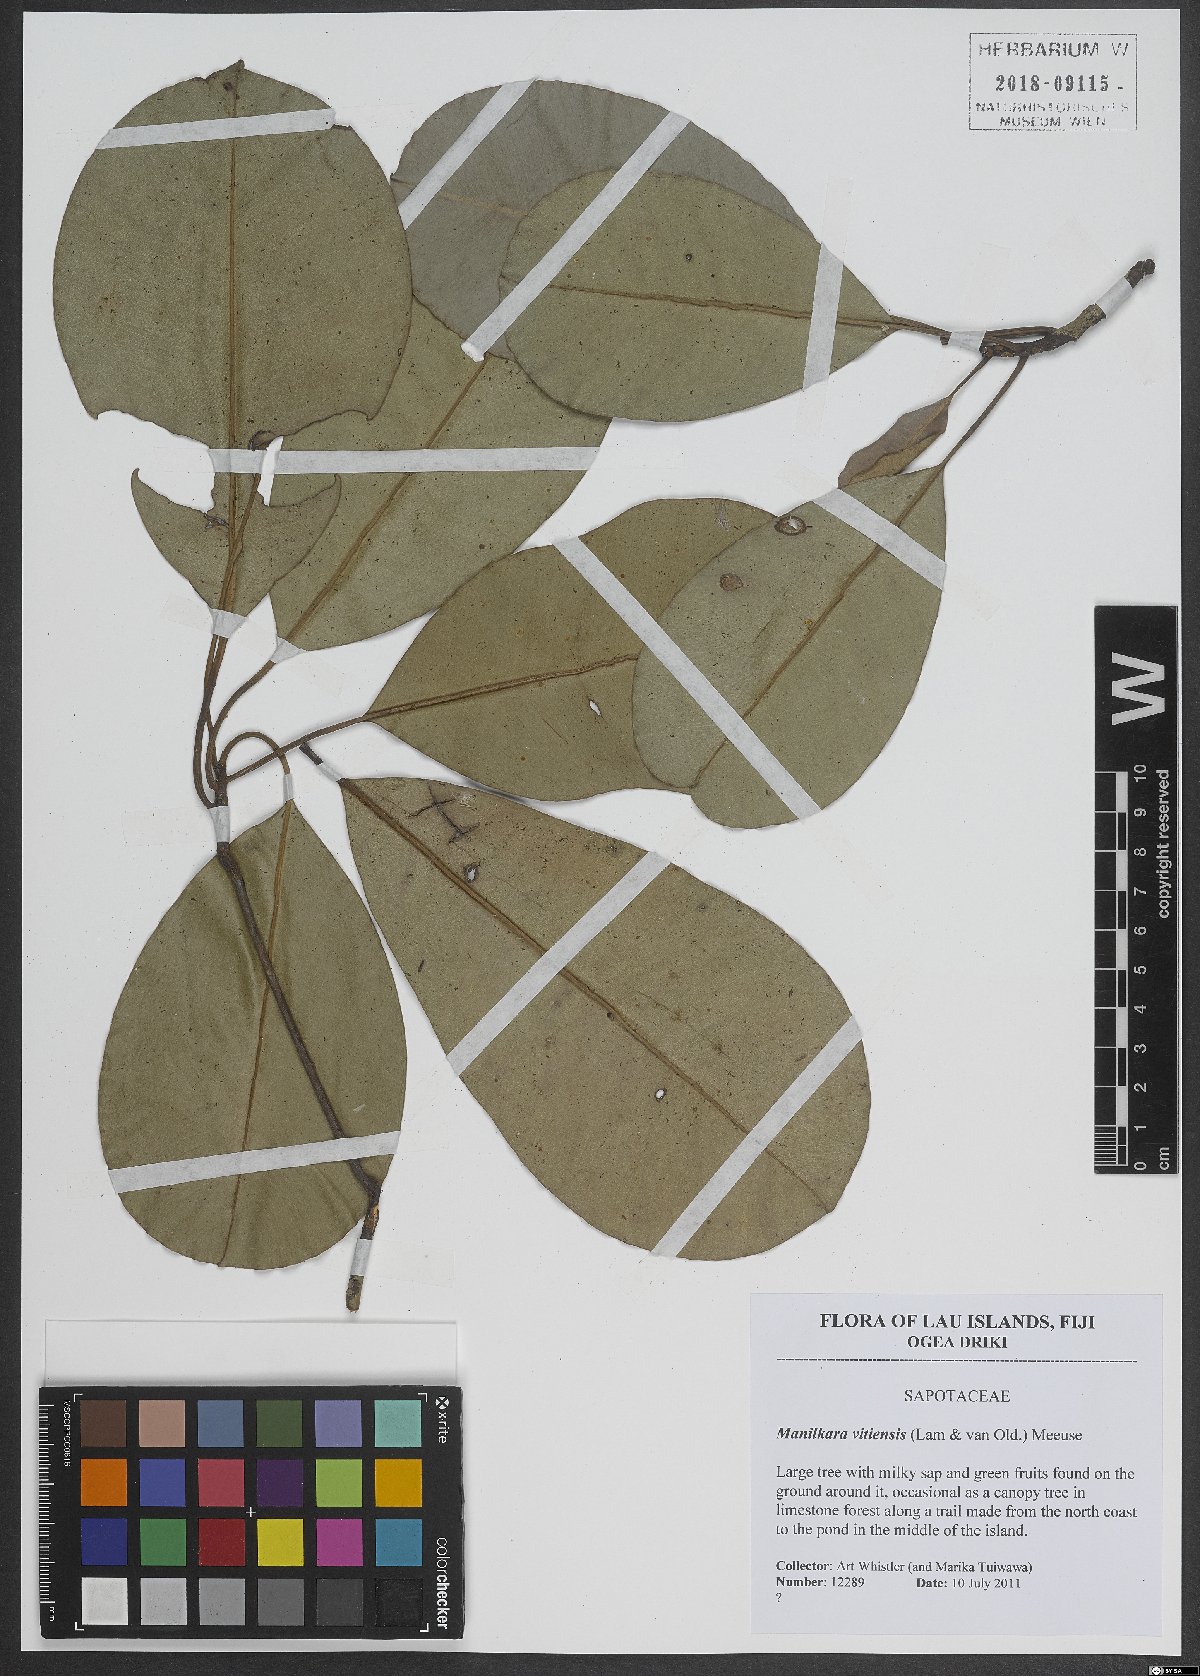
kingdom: Plantae
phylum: Tracheophyta
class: Magnoliopsida
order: Ericales
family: Sapotaceae
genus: Manilkara
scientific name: Manilkara vitiensis
